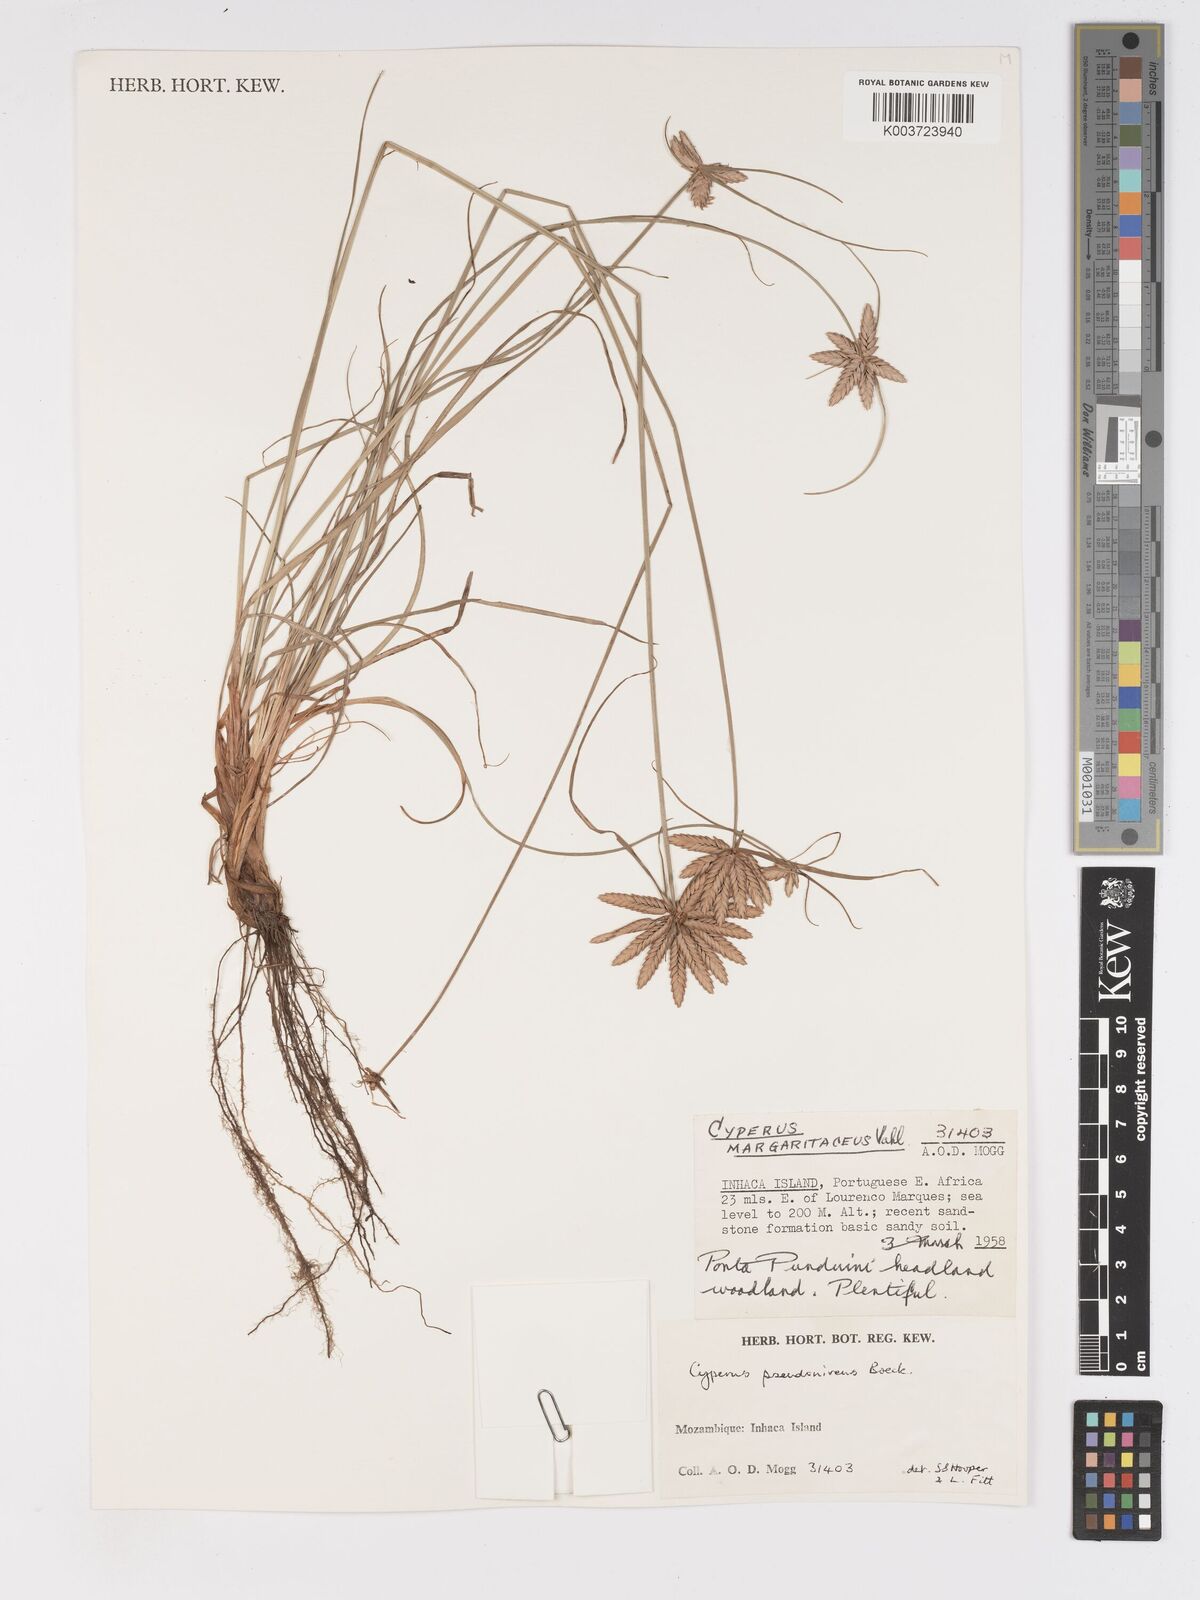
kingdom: Plantae
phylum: Tracheophyta
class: Liliopsida
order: Poales
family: Cyperaceae
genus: Cyperus
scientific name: Cyperus margaritaceus
